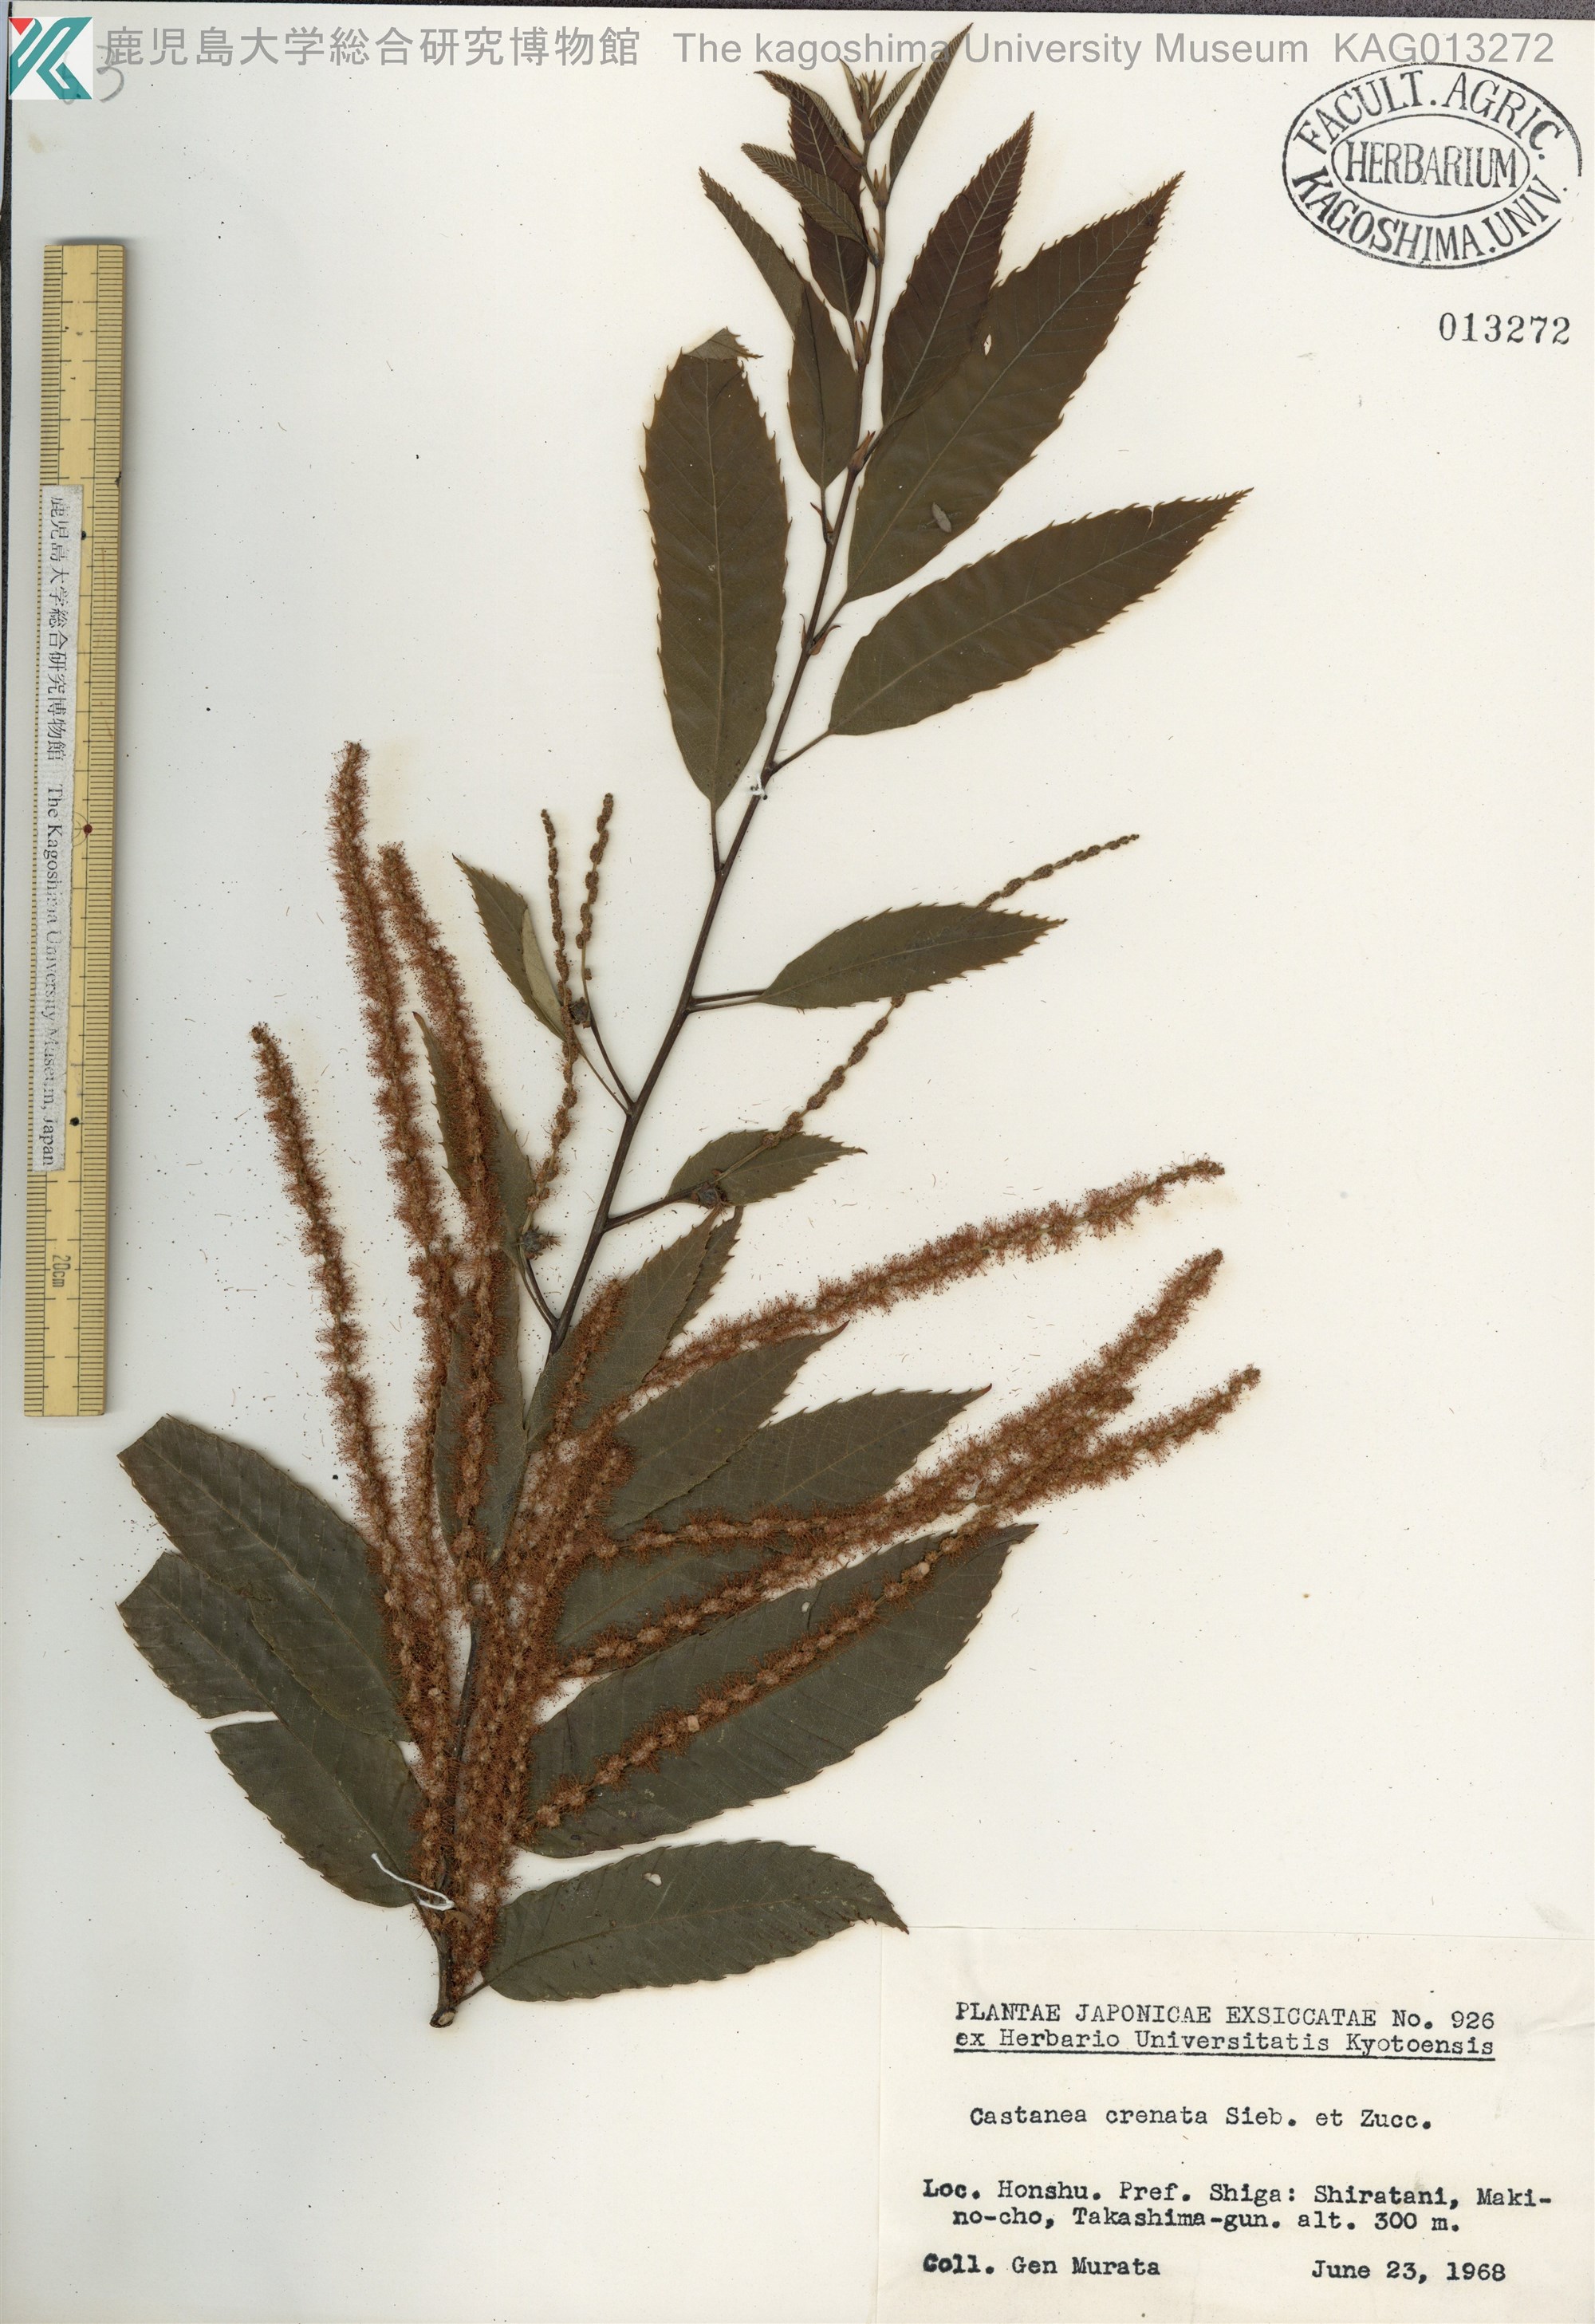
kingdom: Plantae
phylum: Tracheophyta
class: Magnoliopsida
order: Fagales
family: Fagaceae
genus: Castanea
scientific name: Castanea crenata
